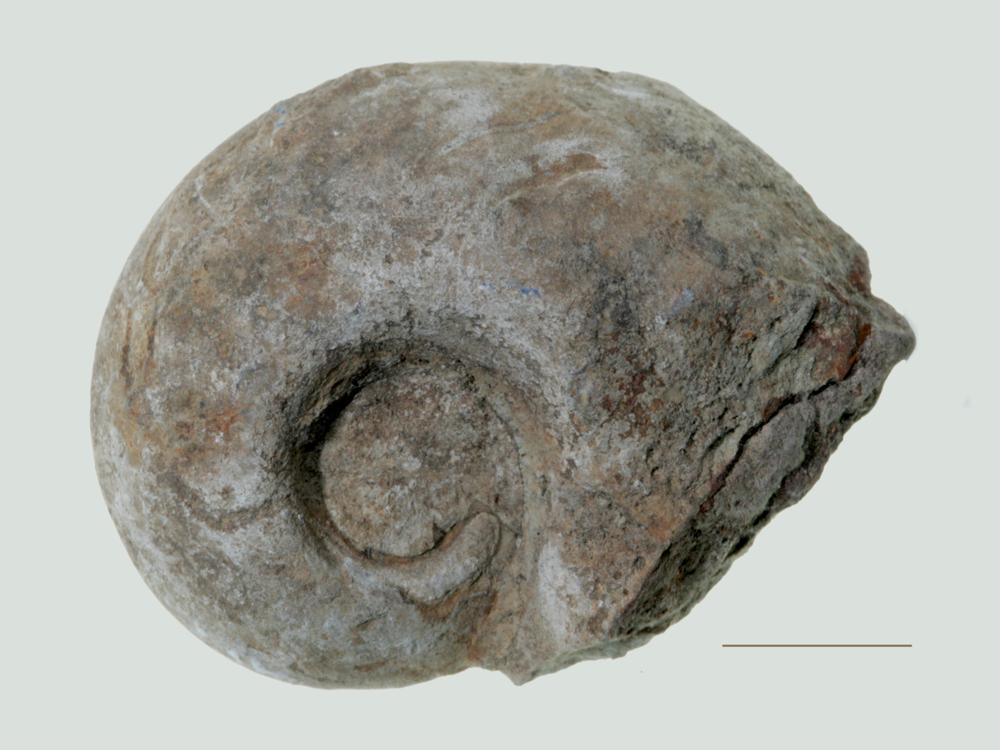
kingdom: Animalia
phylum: Mollusca
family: Macluritidae
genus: Maclurites
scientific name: Maclurites Maclurea neritoides
